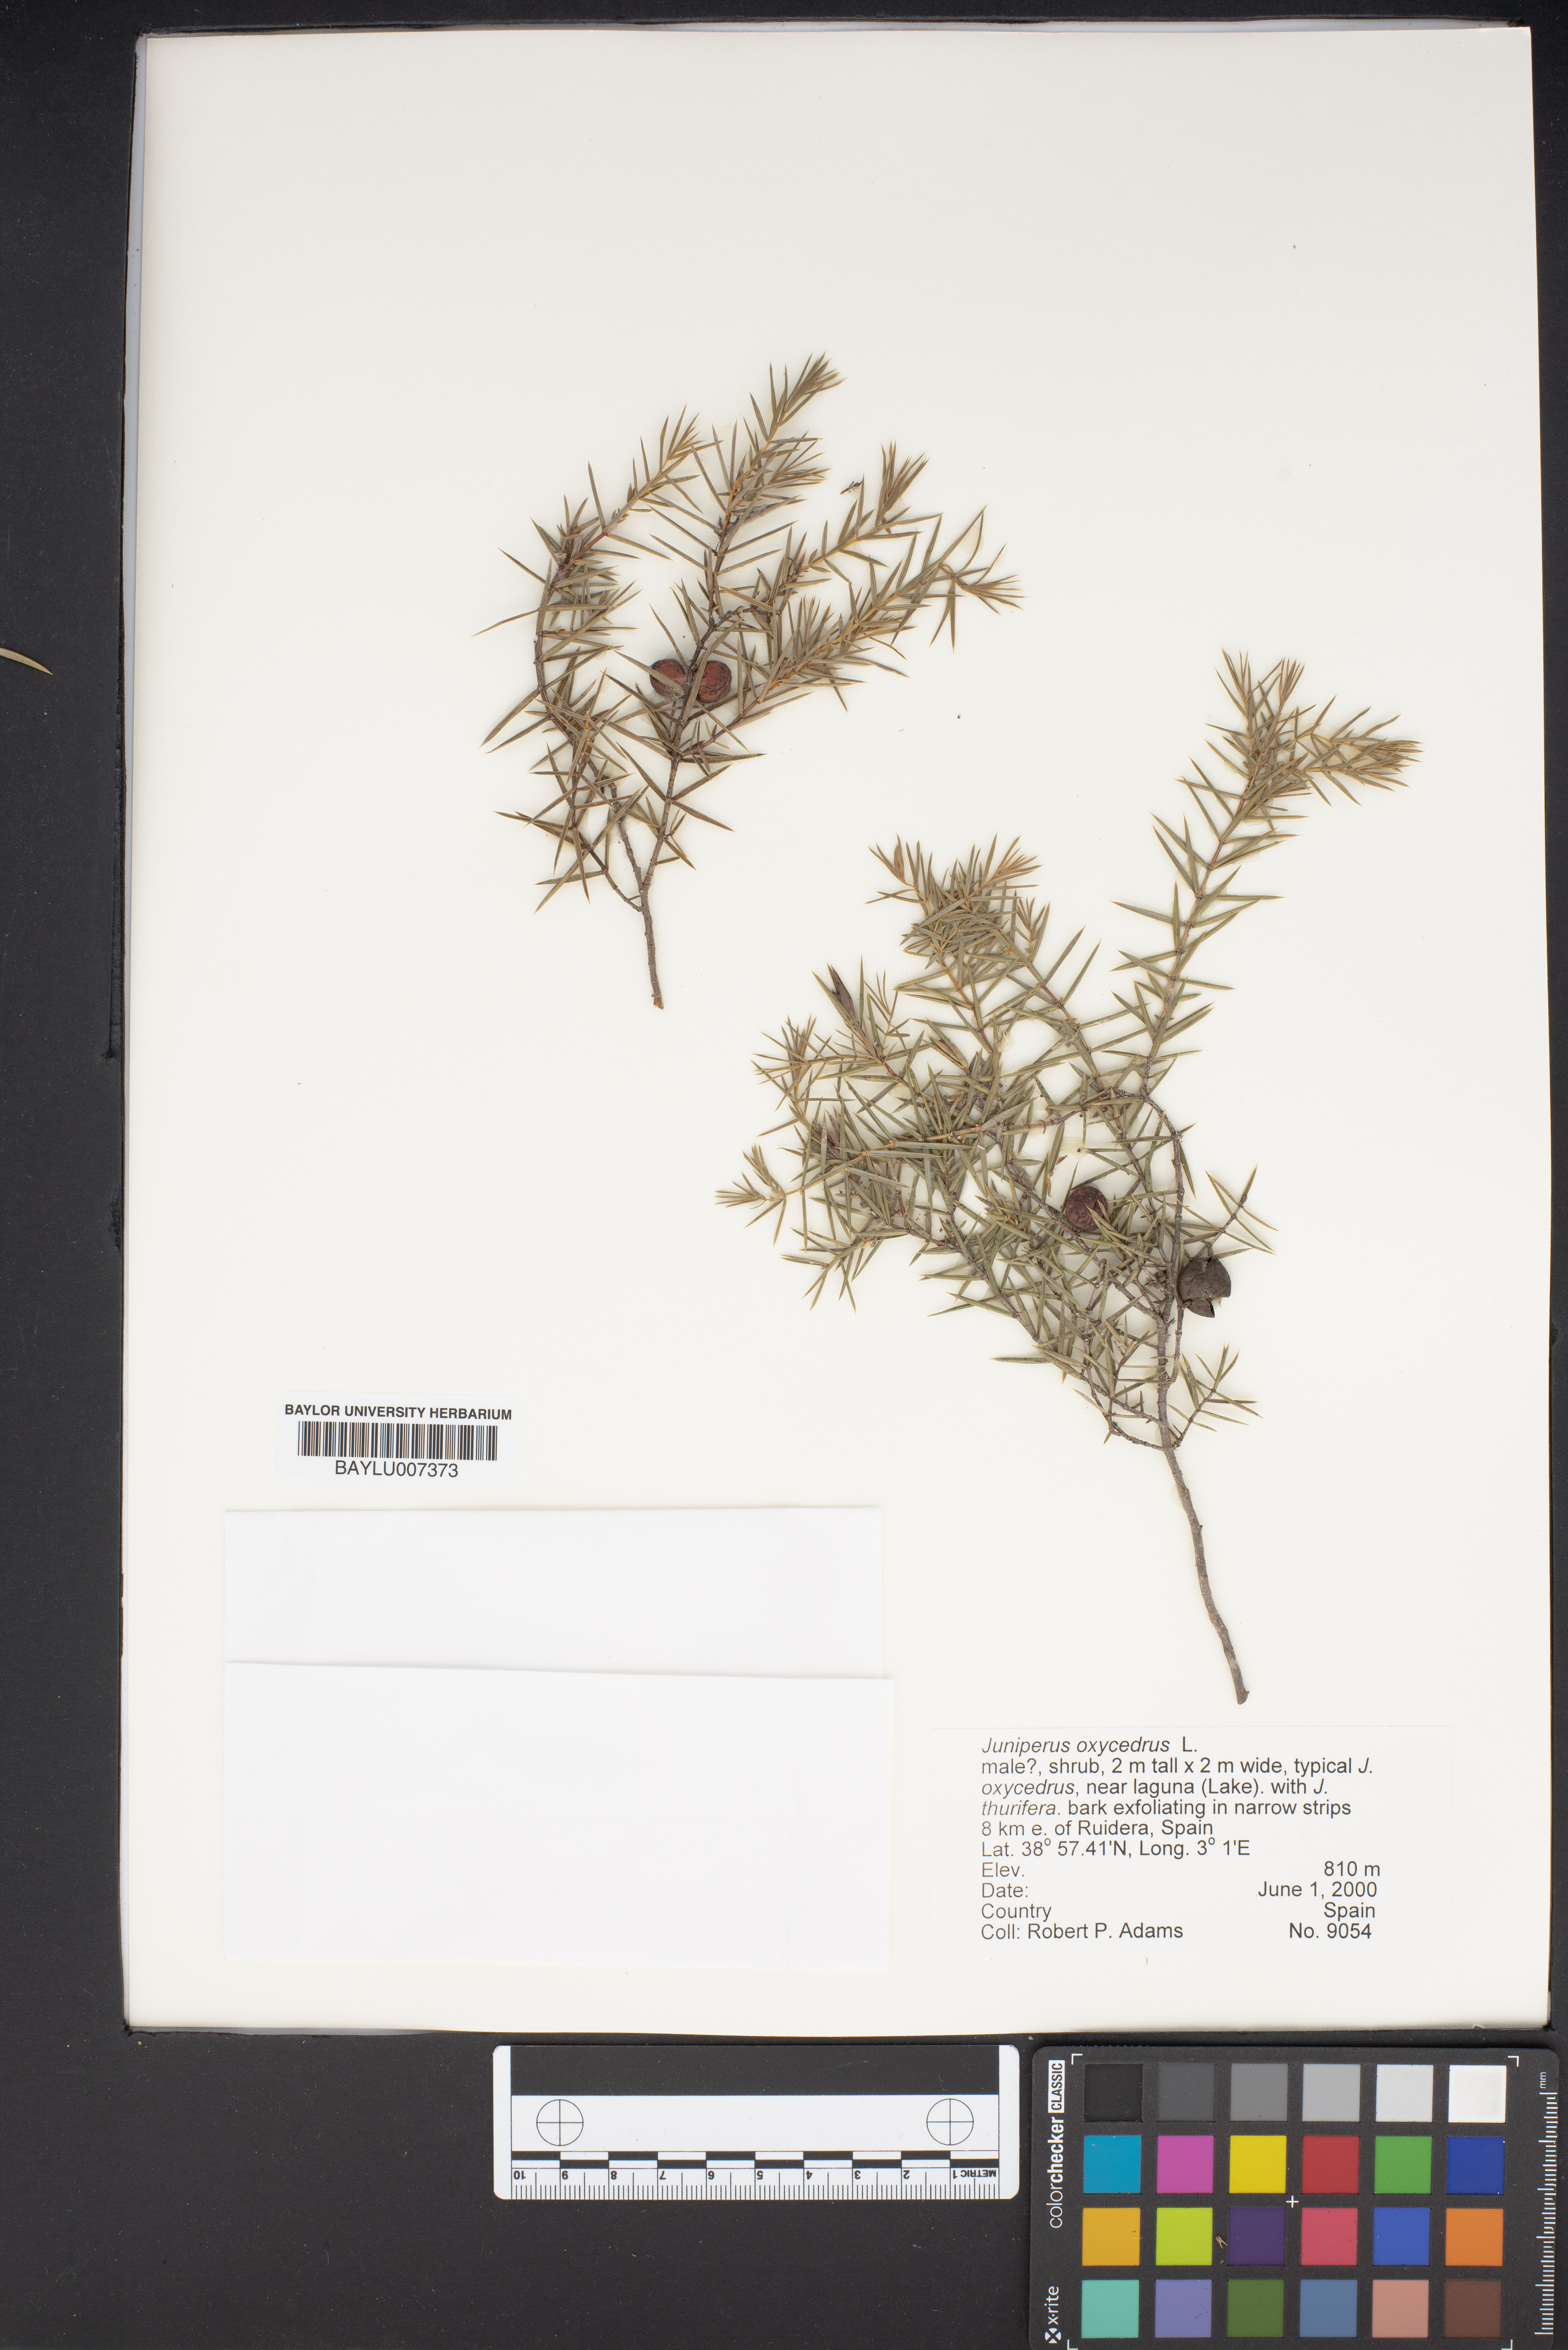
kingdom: Plantae
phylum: Tracheophyta
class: Pinopsida
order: Pinales
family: Cupressaceae
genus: Juniperus
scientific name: Juniperus oxycedrus
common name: Prickly juniper
